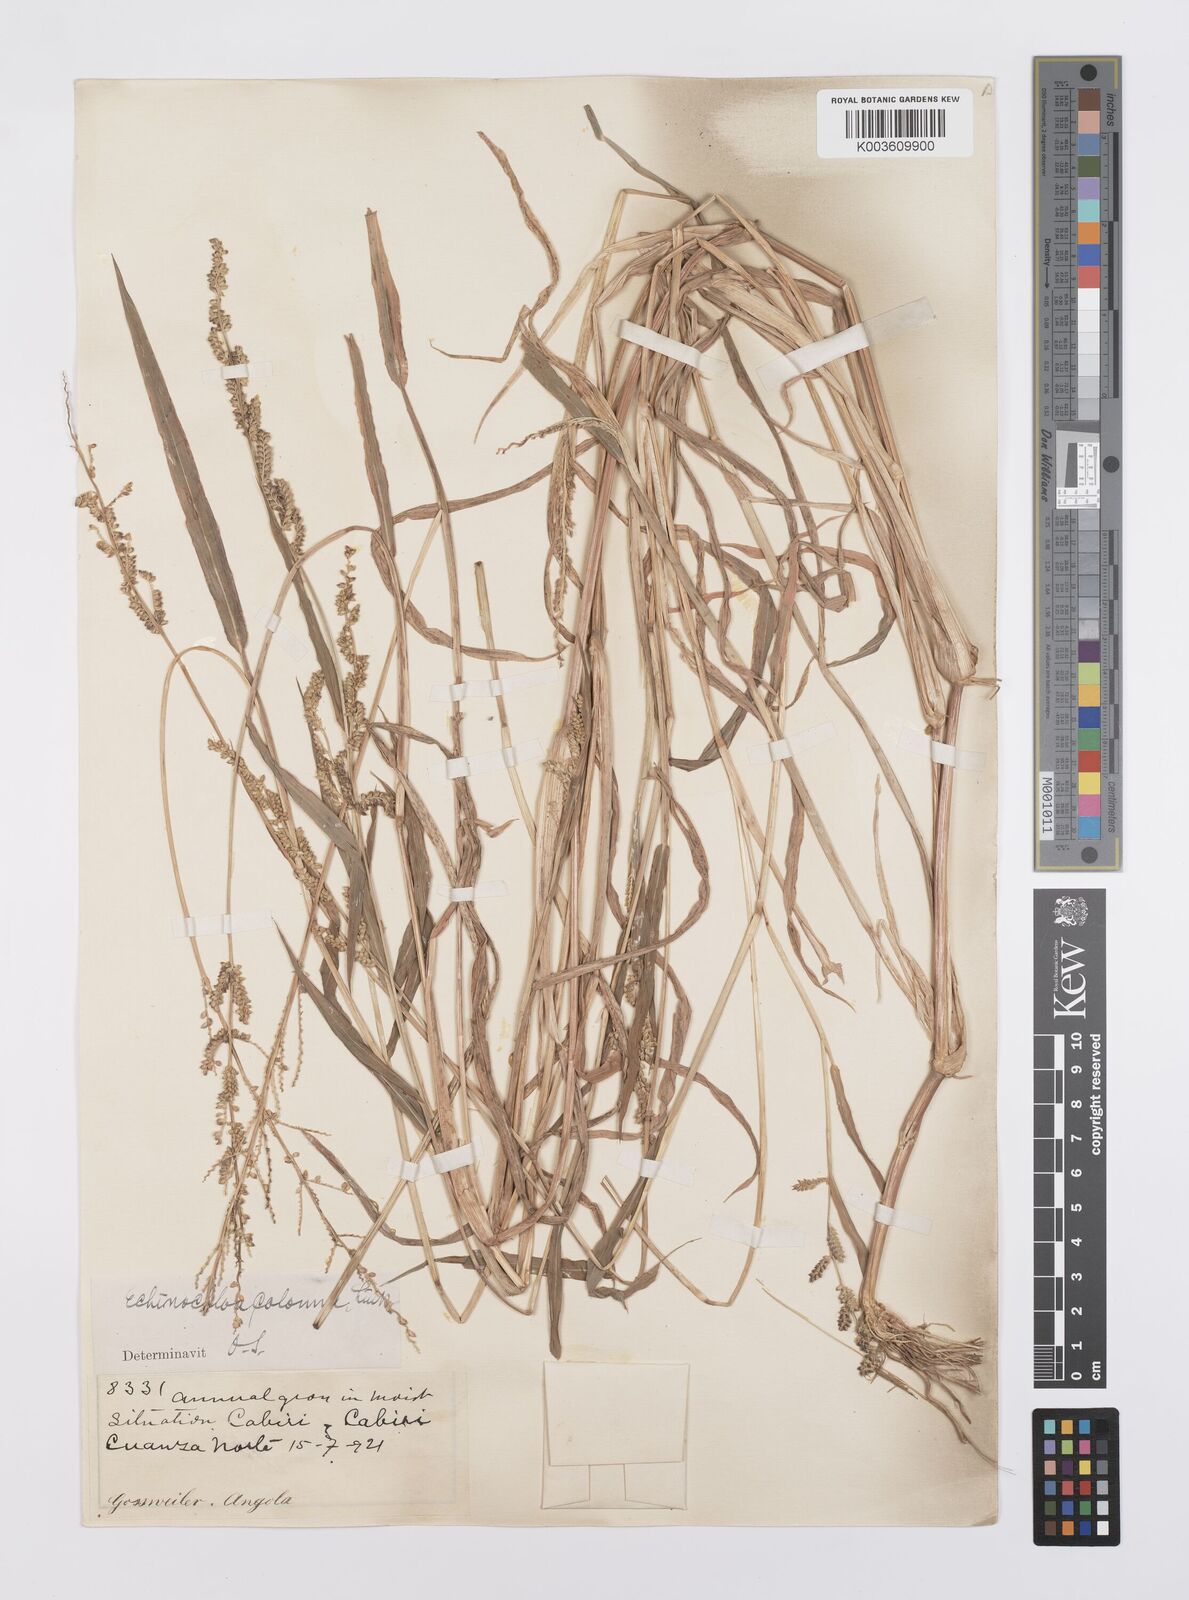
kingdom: Plantae
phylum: Tracheophyta
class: Liliopsida
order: Poales
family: Poaceae
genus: Echinochloa
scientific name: Echinochloa colonum
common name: Jungle rice
